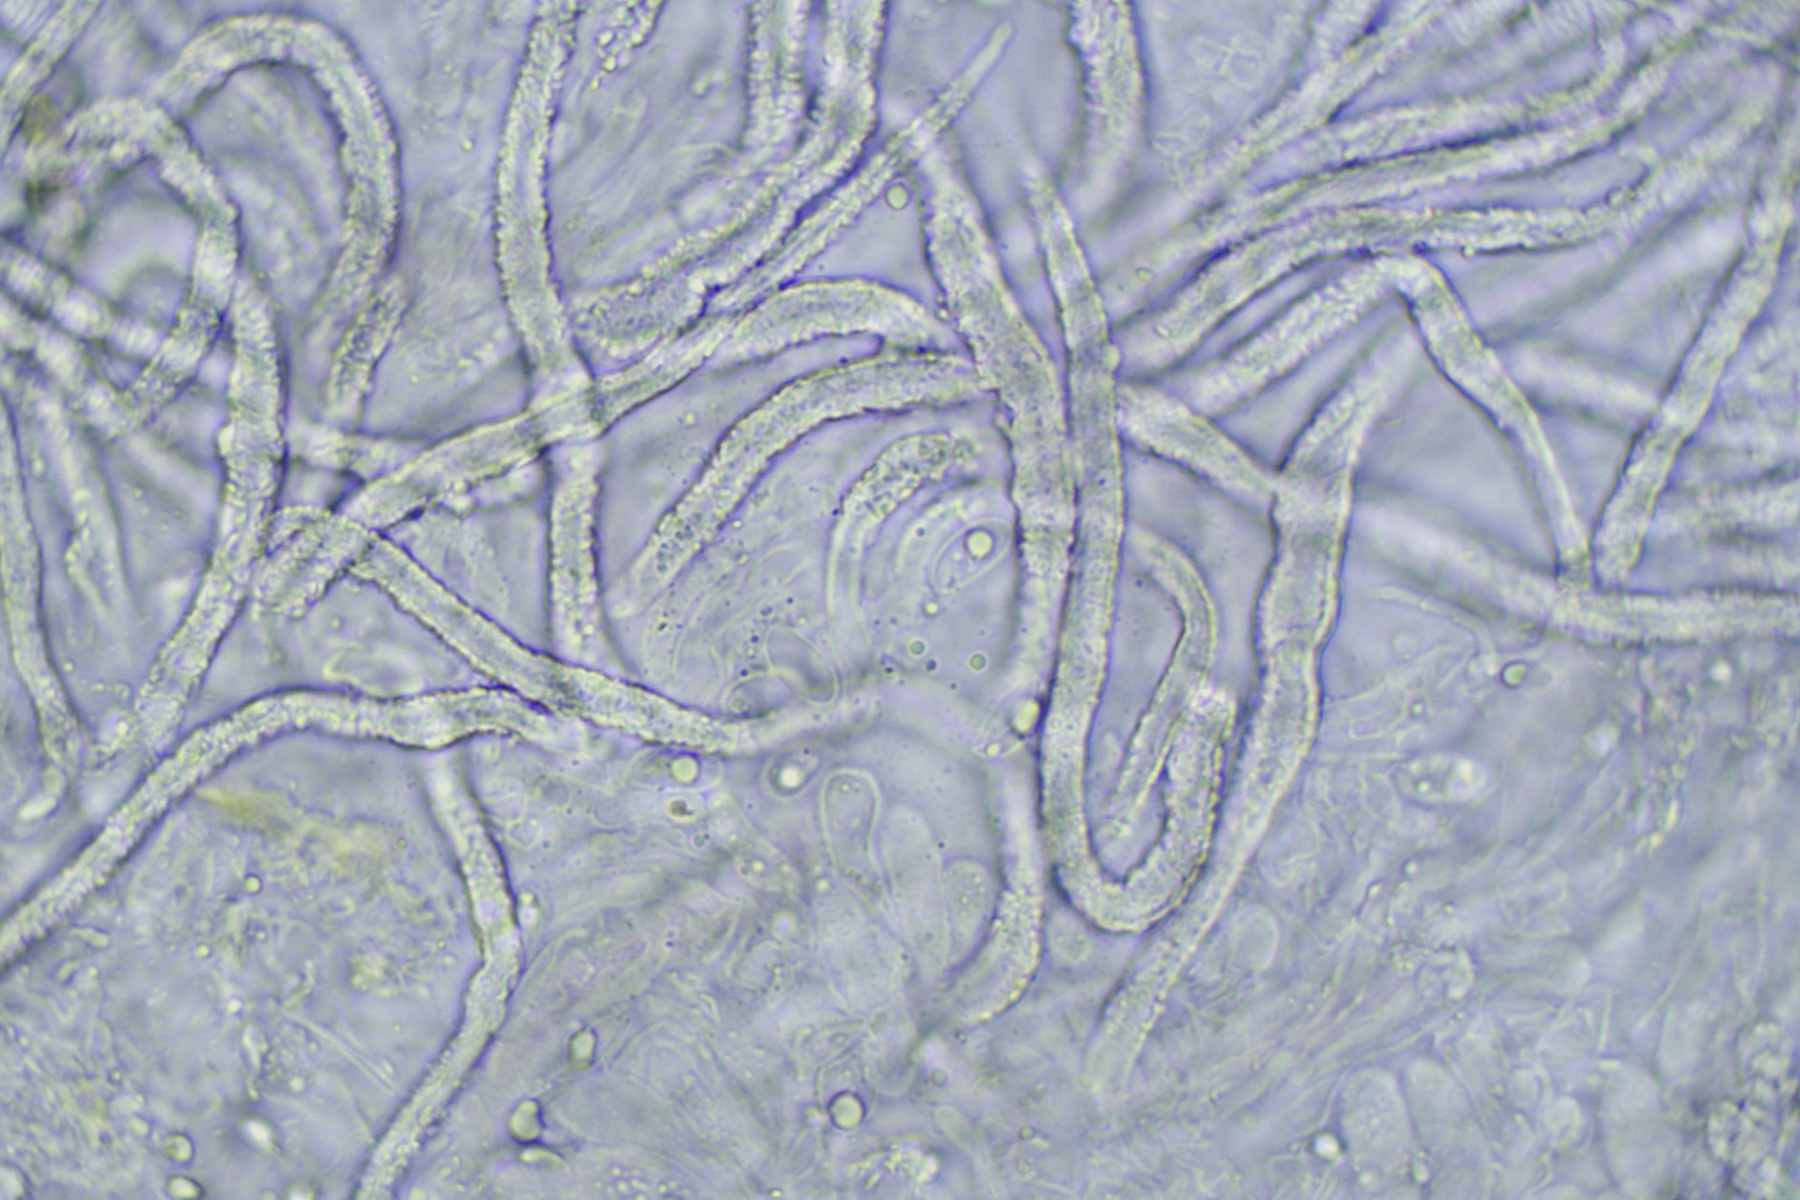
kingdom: Fungi
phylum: Basidiomycota
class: Agaricomycetes
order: Agaricales
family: Niaceae
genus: Flagelloscypha
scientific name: Flagelloscypha
